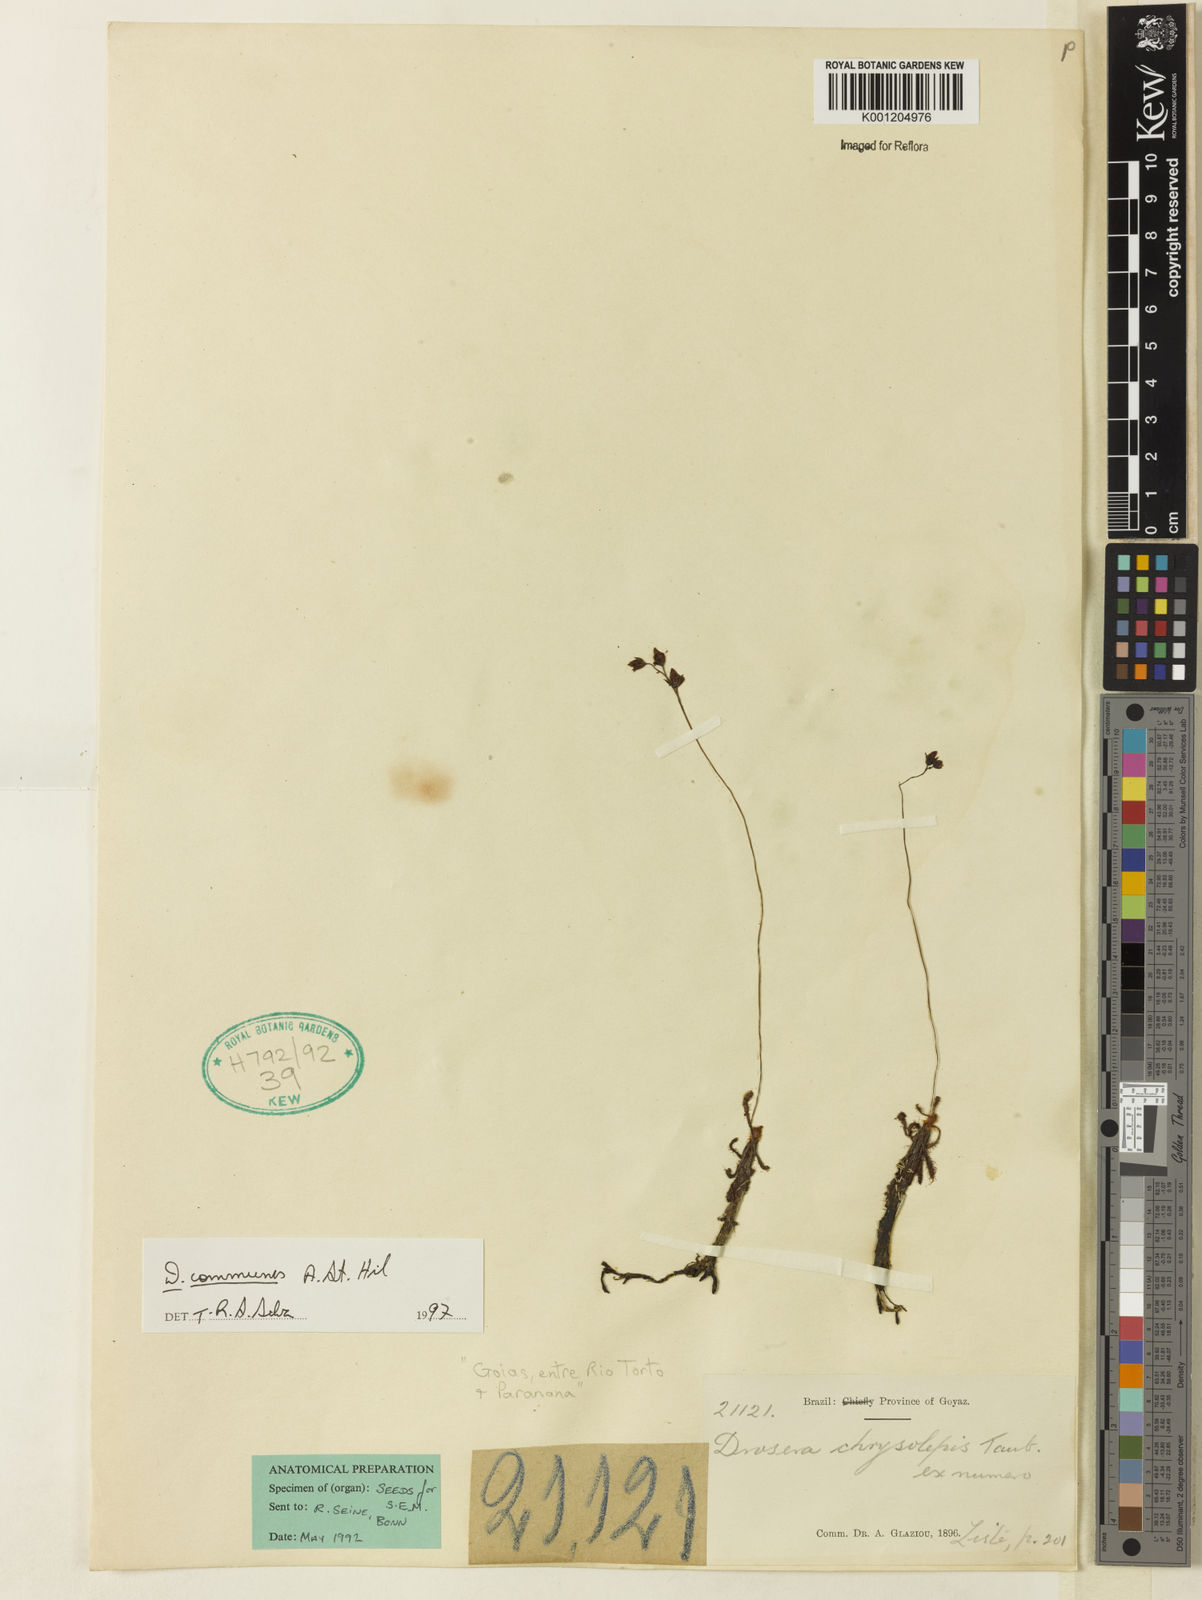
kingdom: Plantae
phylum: Tracheophyta
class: Magnoliopsida
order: Caryophyllales
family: Droseraceae
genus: Drosera
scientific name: Drosera
